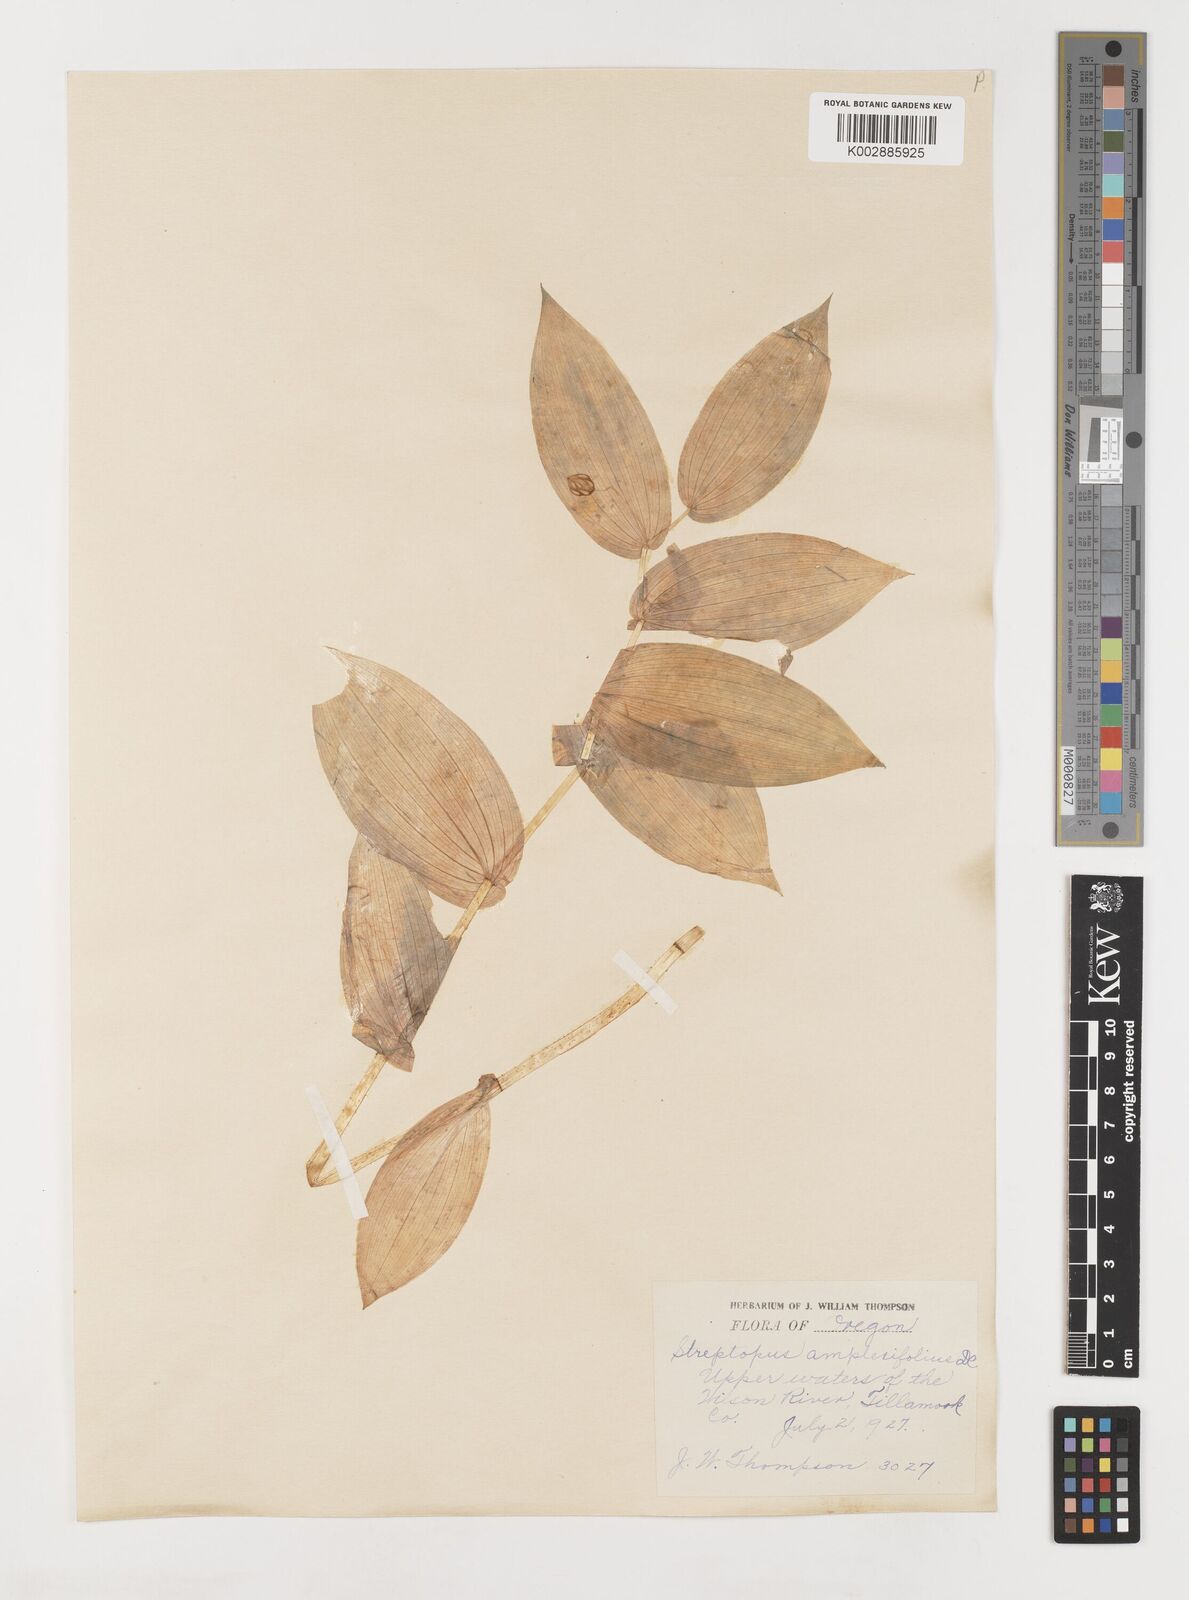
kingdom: Plantae
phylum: Tracheophyta
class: Liliopsida
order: Liliales
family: Liliaceae
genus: Streptopus
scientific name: Streptopus
